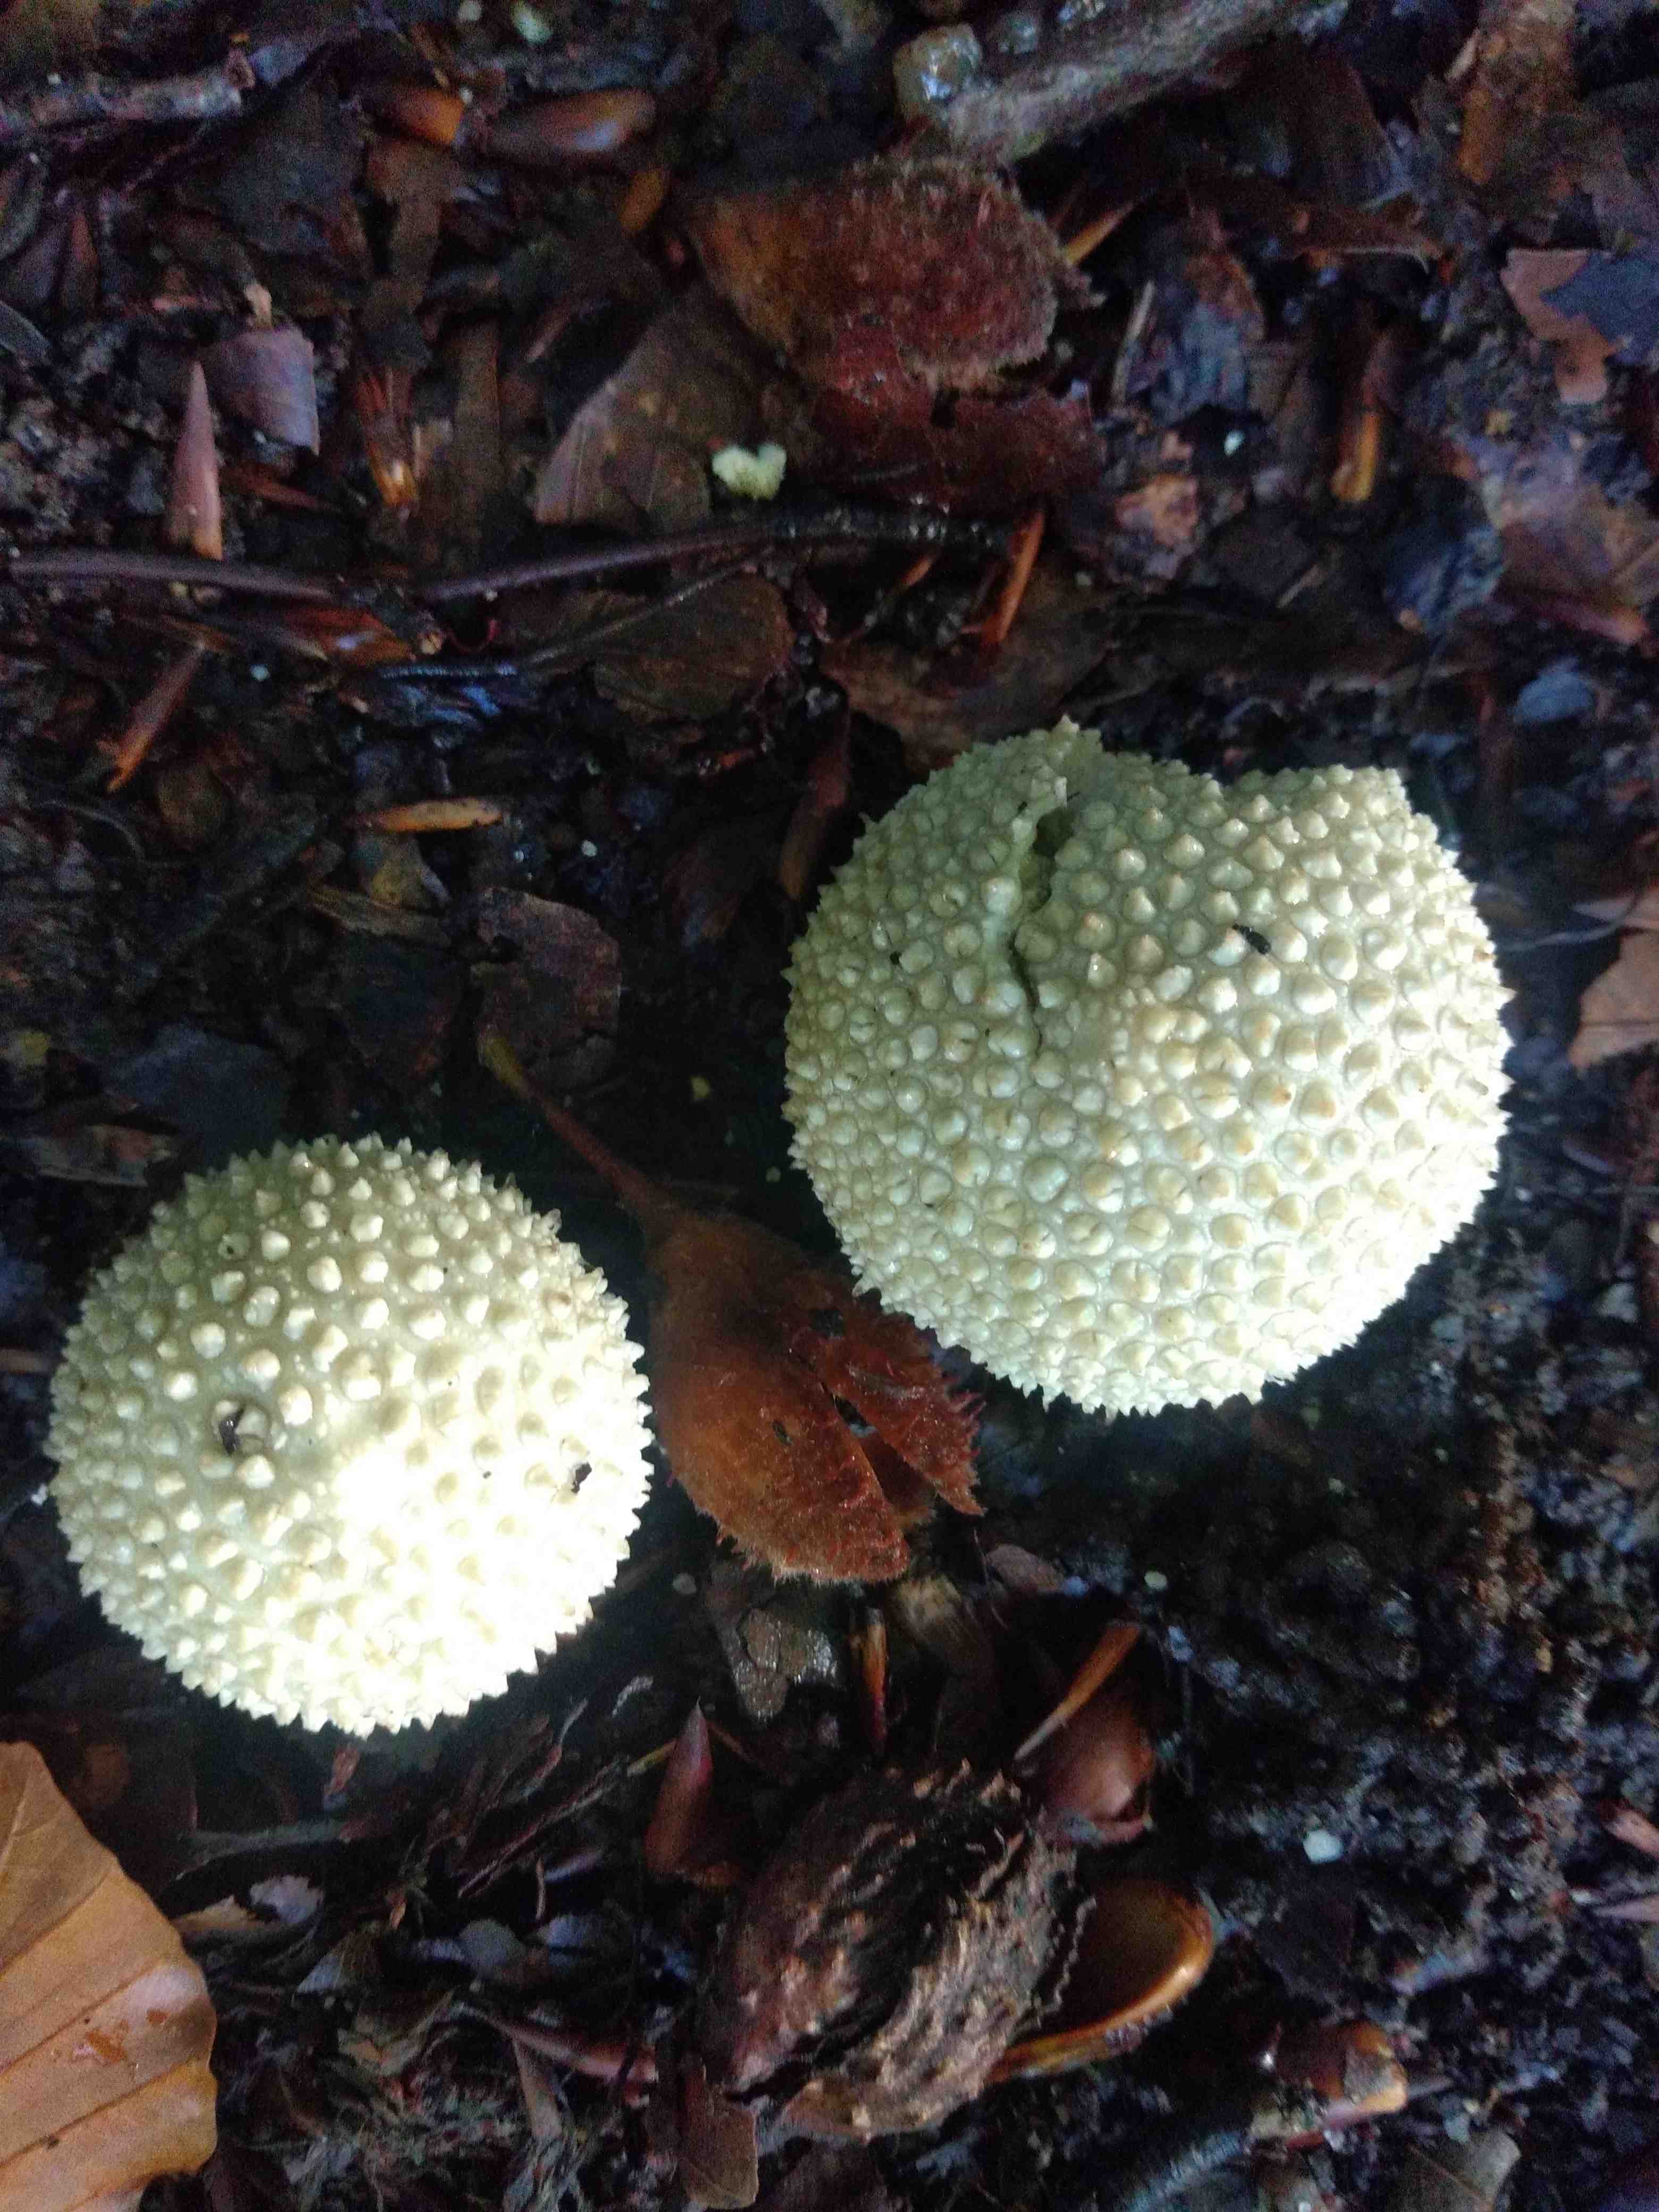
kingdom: Fungi
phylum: Basidiomycota
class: Agaricomycetes
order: Agaricales
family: Lycoperdaceae
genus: Lycoperdon
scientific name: Lycoperdon perlatum
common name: krystal-støvbold
